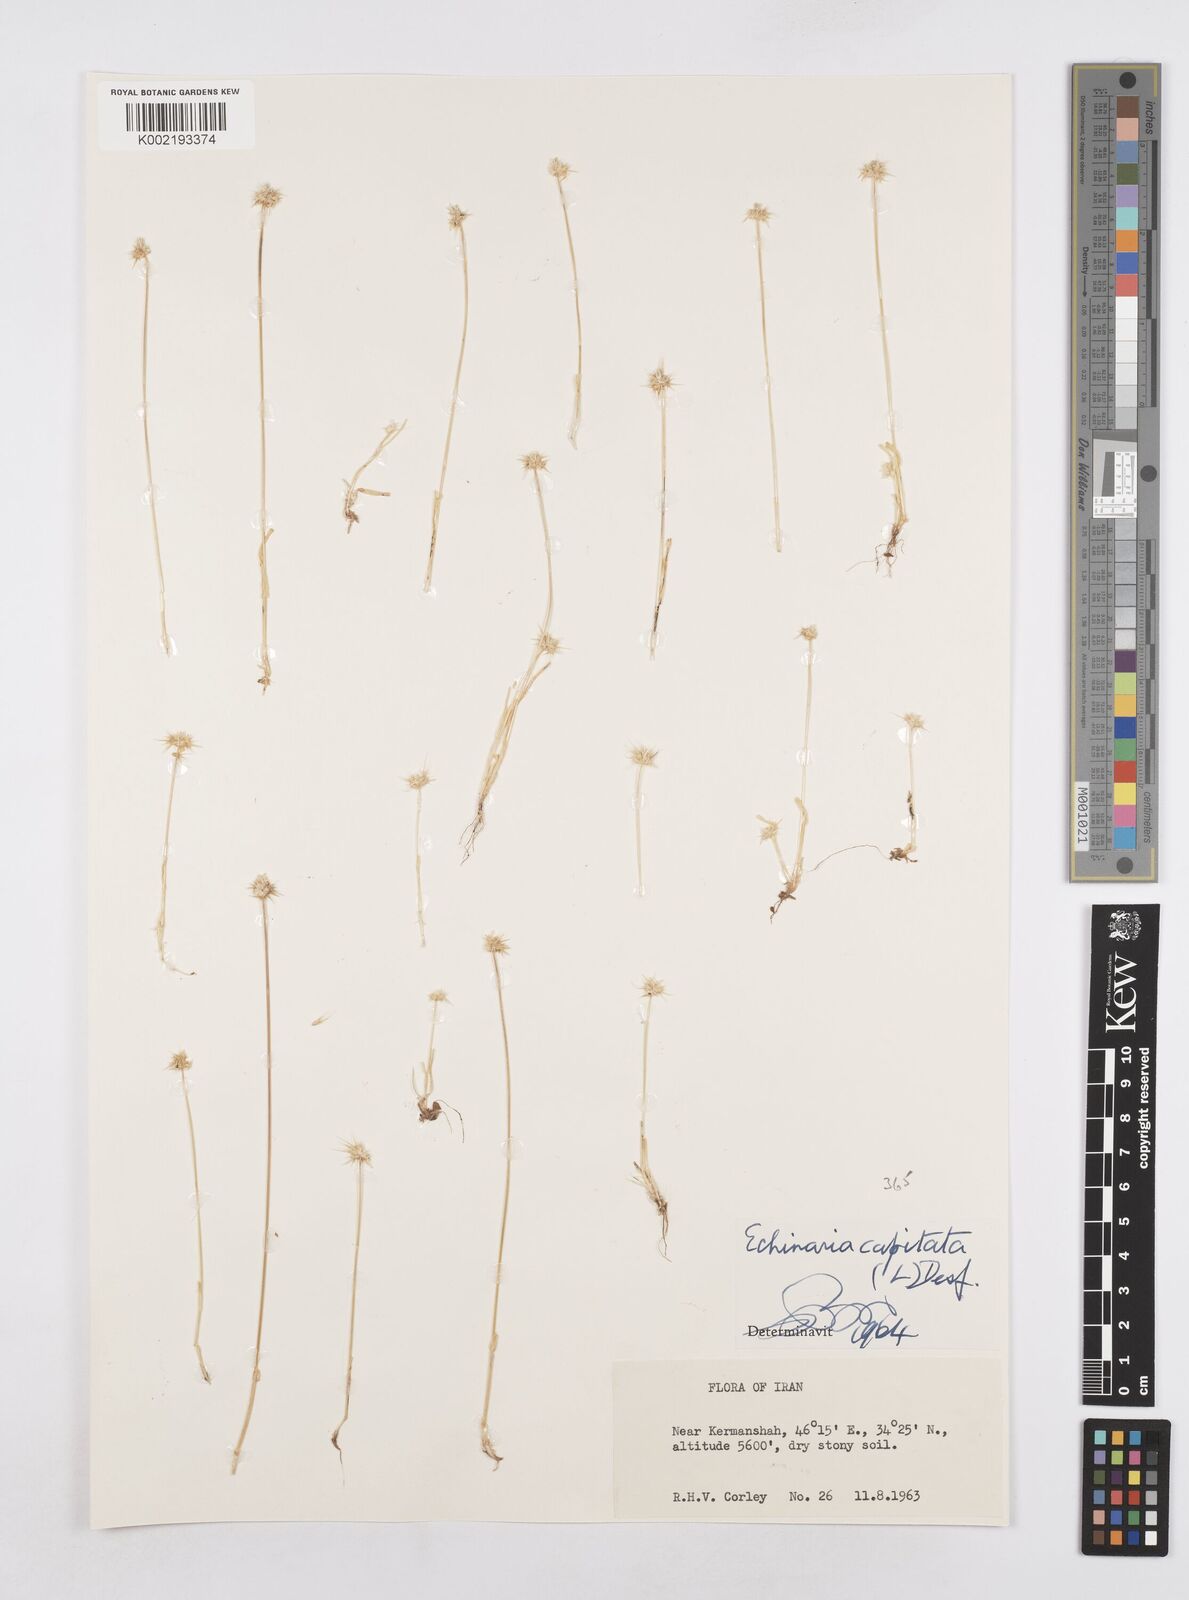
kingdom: Plantae
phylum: Tracheophyta
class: Liliopsida
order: Poales
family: Poaceae
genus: Echinaria
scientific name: Echinaria capitata
